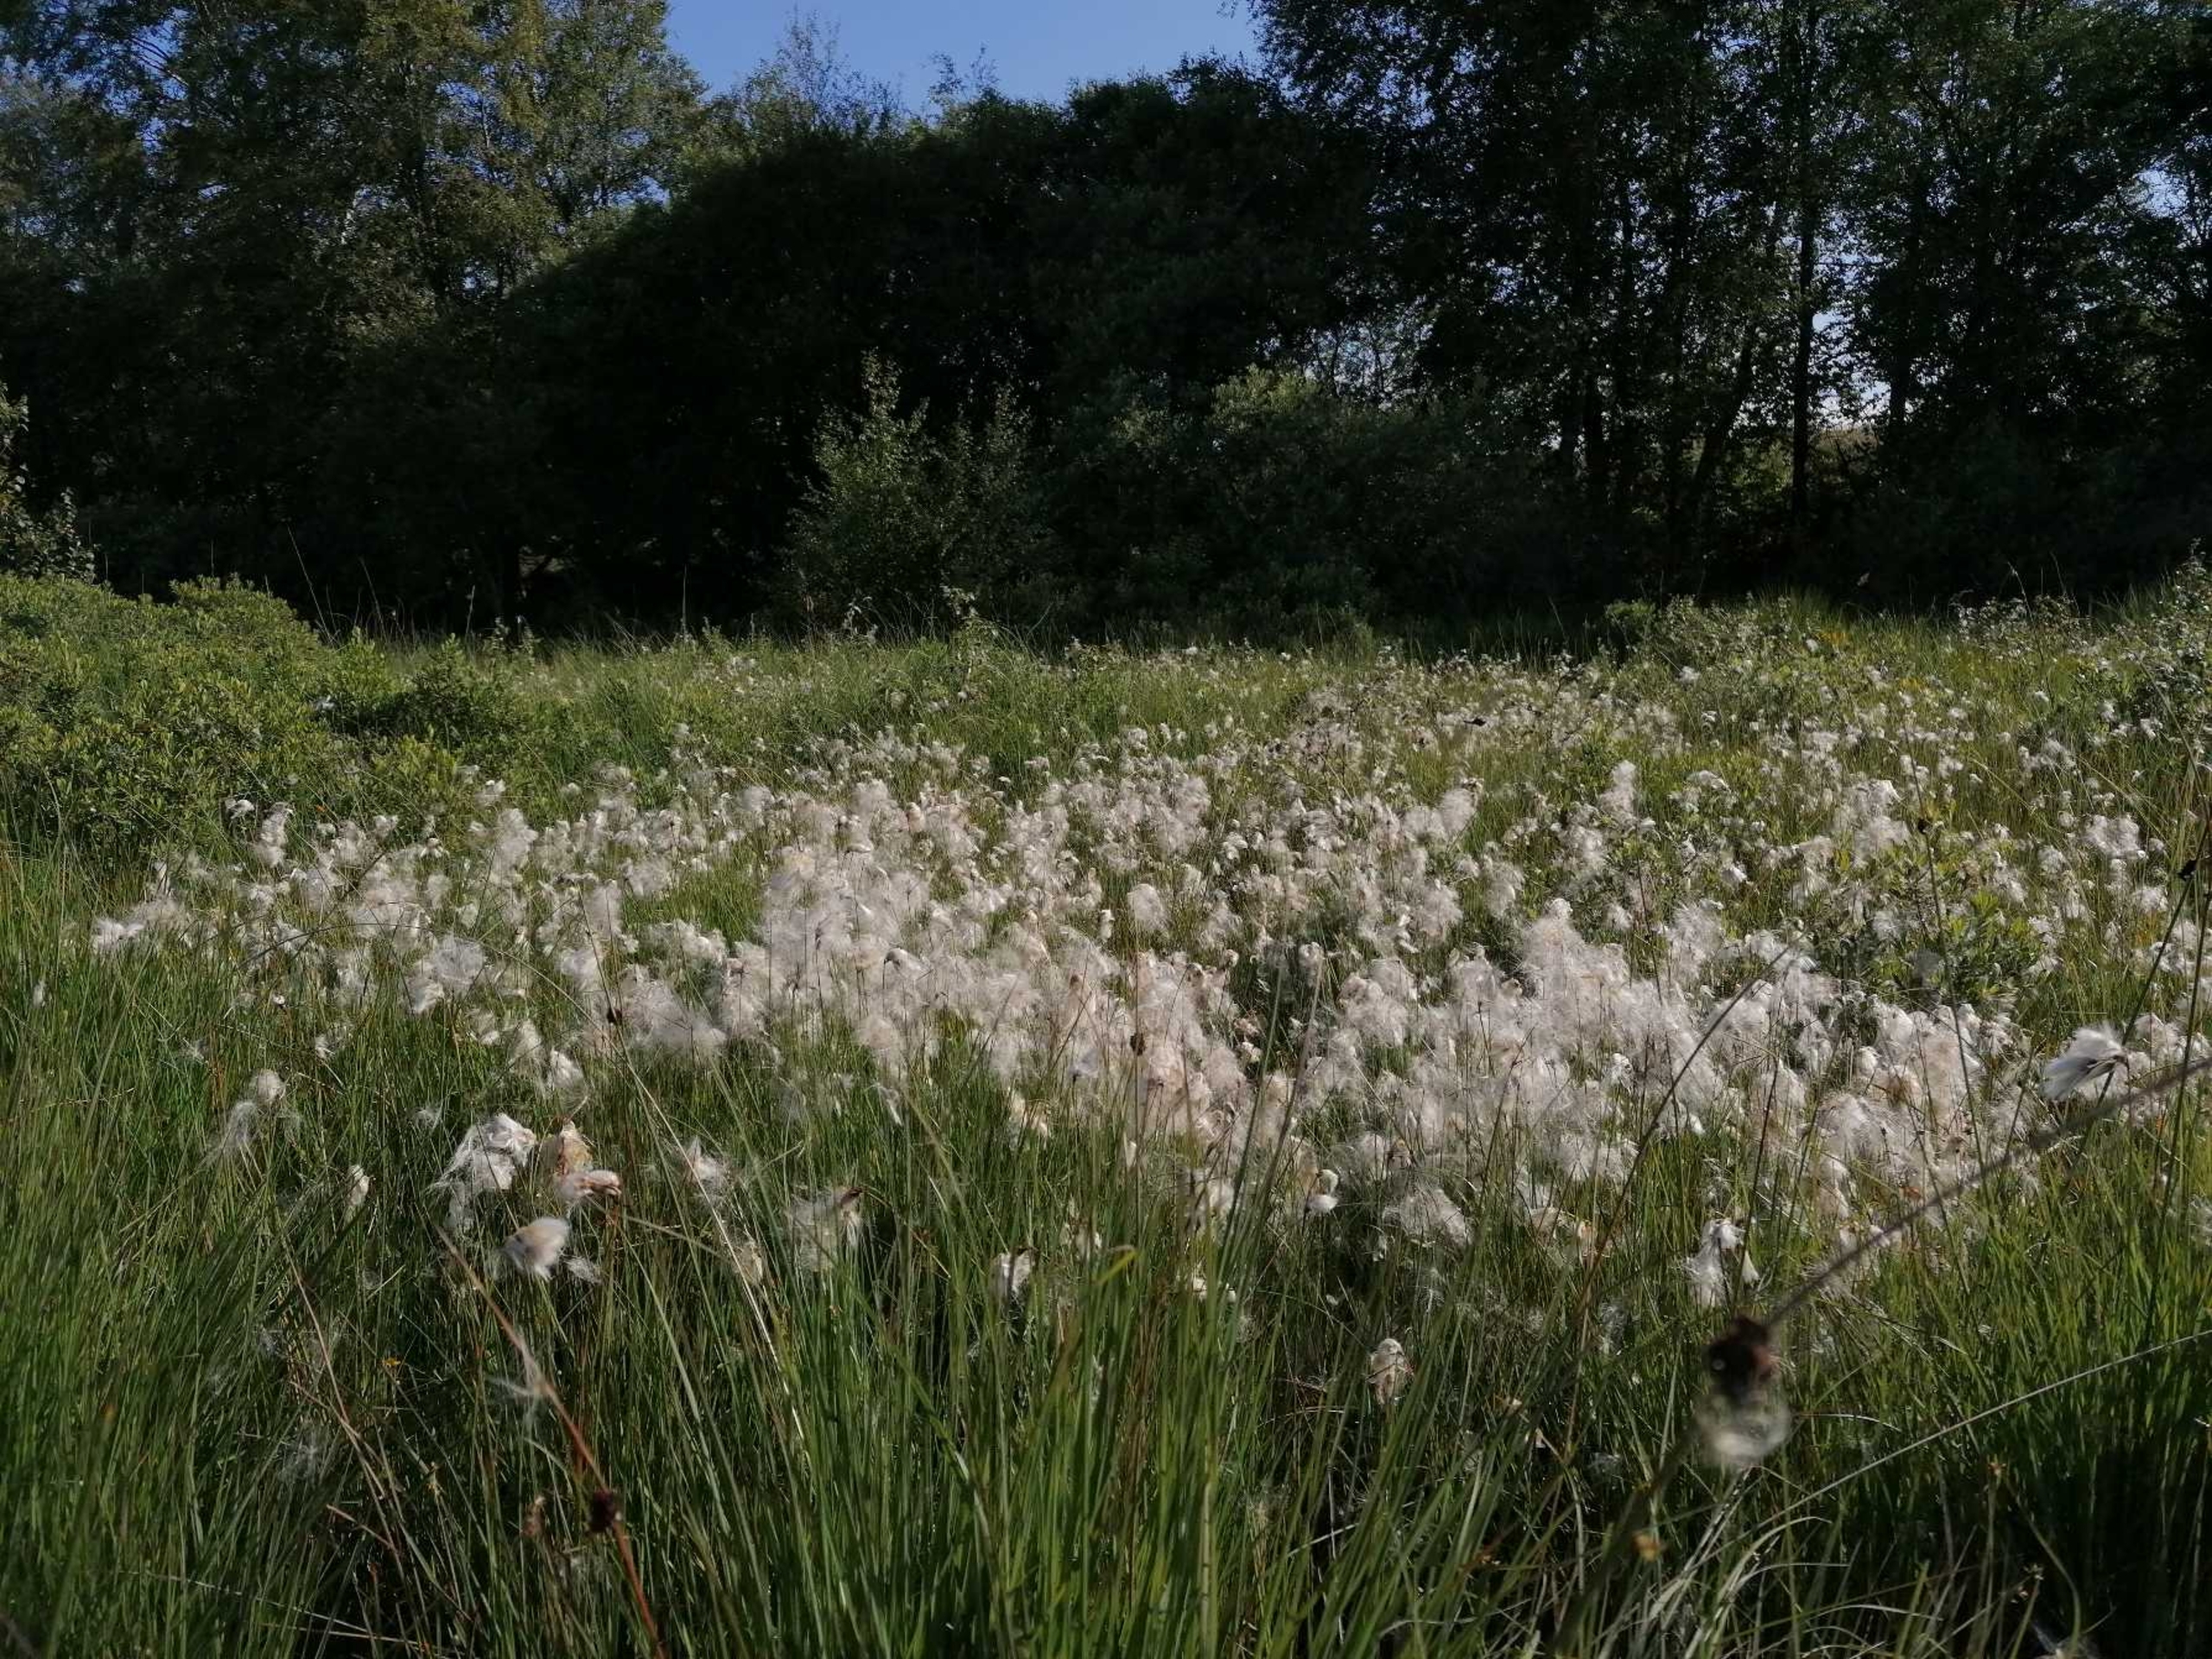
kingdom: Plantae
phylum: Tracheophyta
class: Liliopsida
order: Poales
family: Cyperaceae
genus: Eriophorum
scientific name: Eriophorum gracile
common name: Fin kæruld
